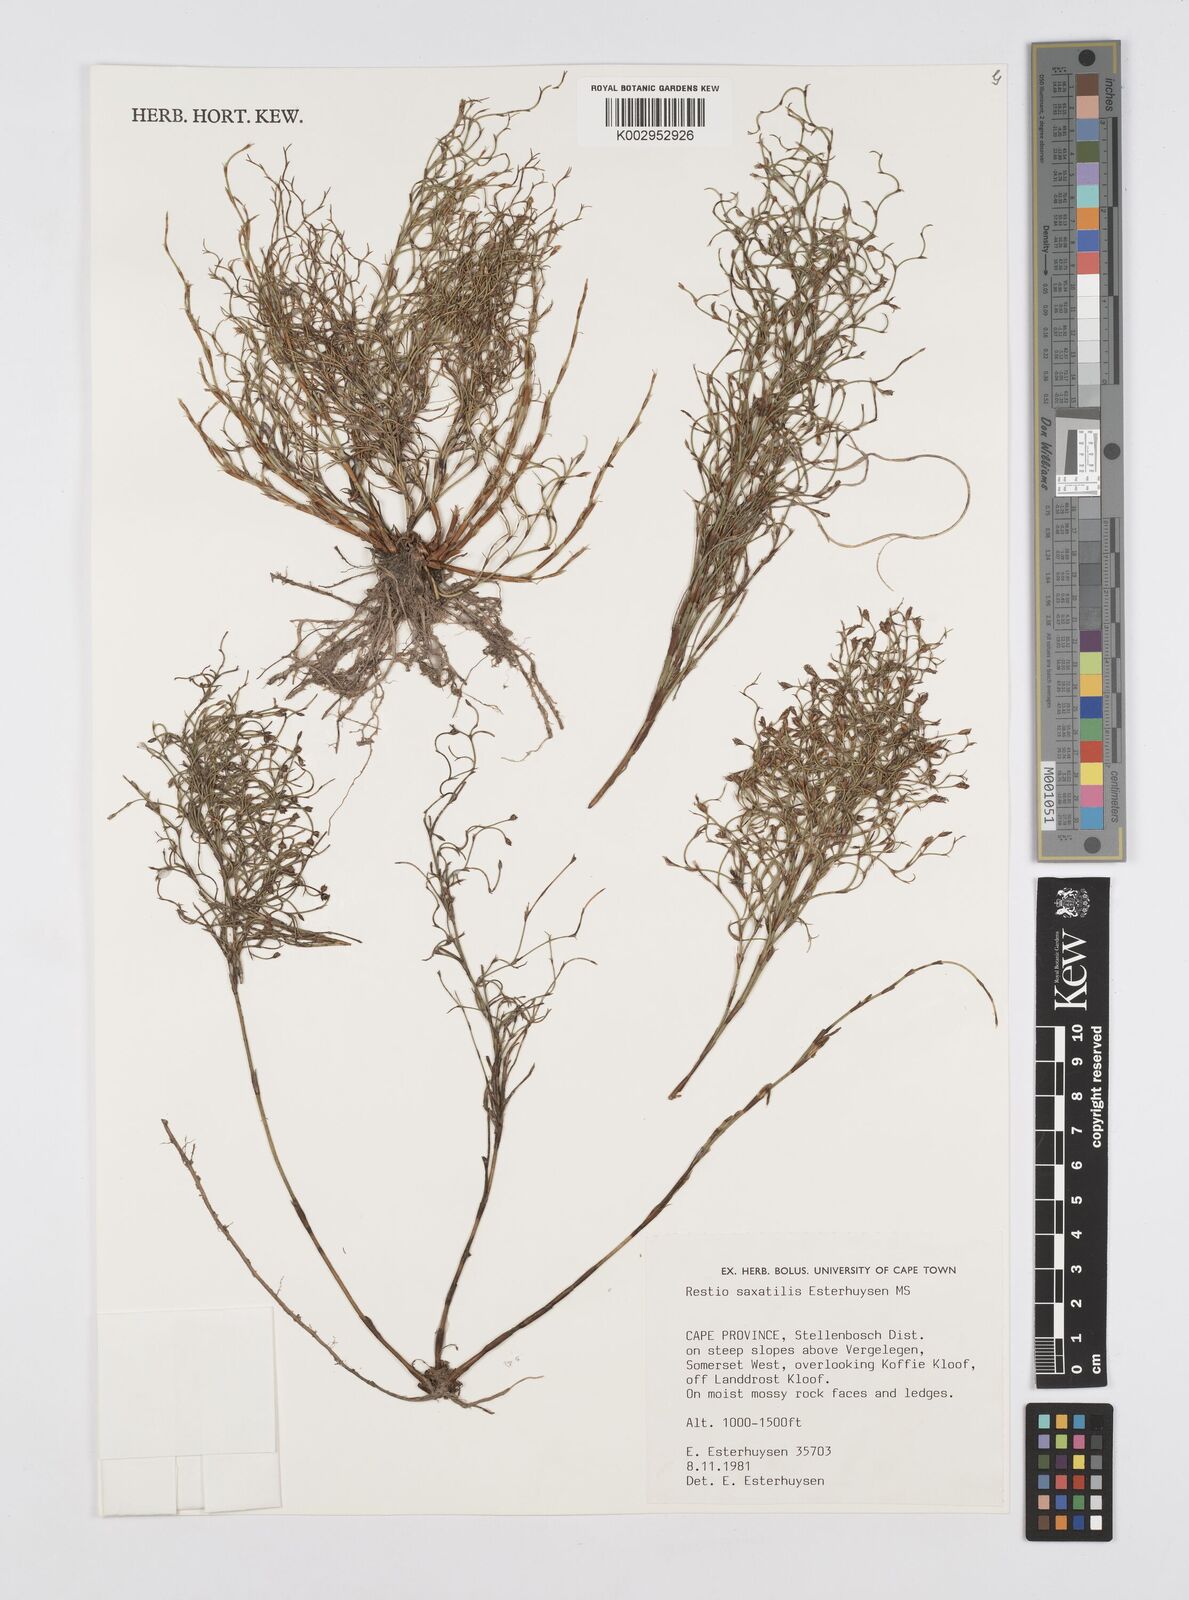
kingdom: Plantae
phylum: Tracheophyta
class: Liliopsida
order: Poales
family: Restionaceae
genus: Restio
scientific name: Restio saxatilis
